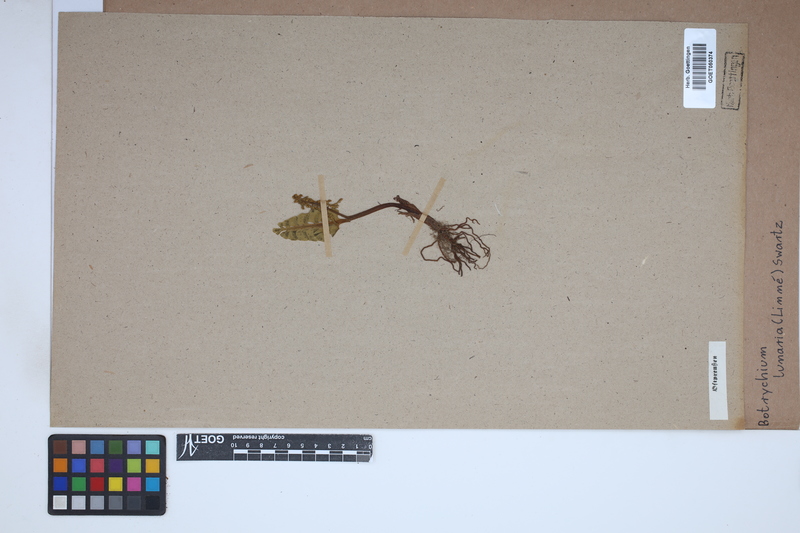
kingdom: Plantae
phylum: Tracheophyta
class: Polypodiopsida
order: Ophioglossales
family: Ophioglossaceae
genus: Botrychium
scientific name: Botrychium lunaria
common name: Moonwort
